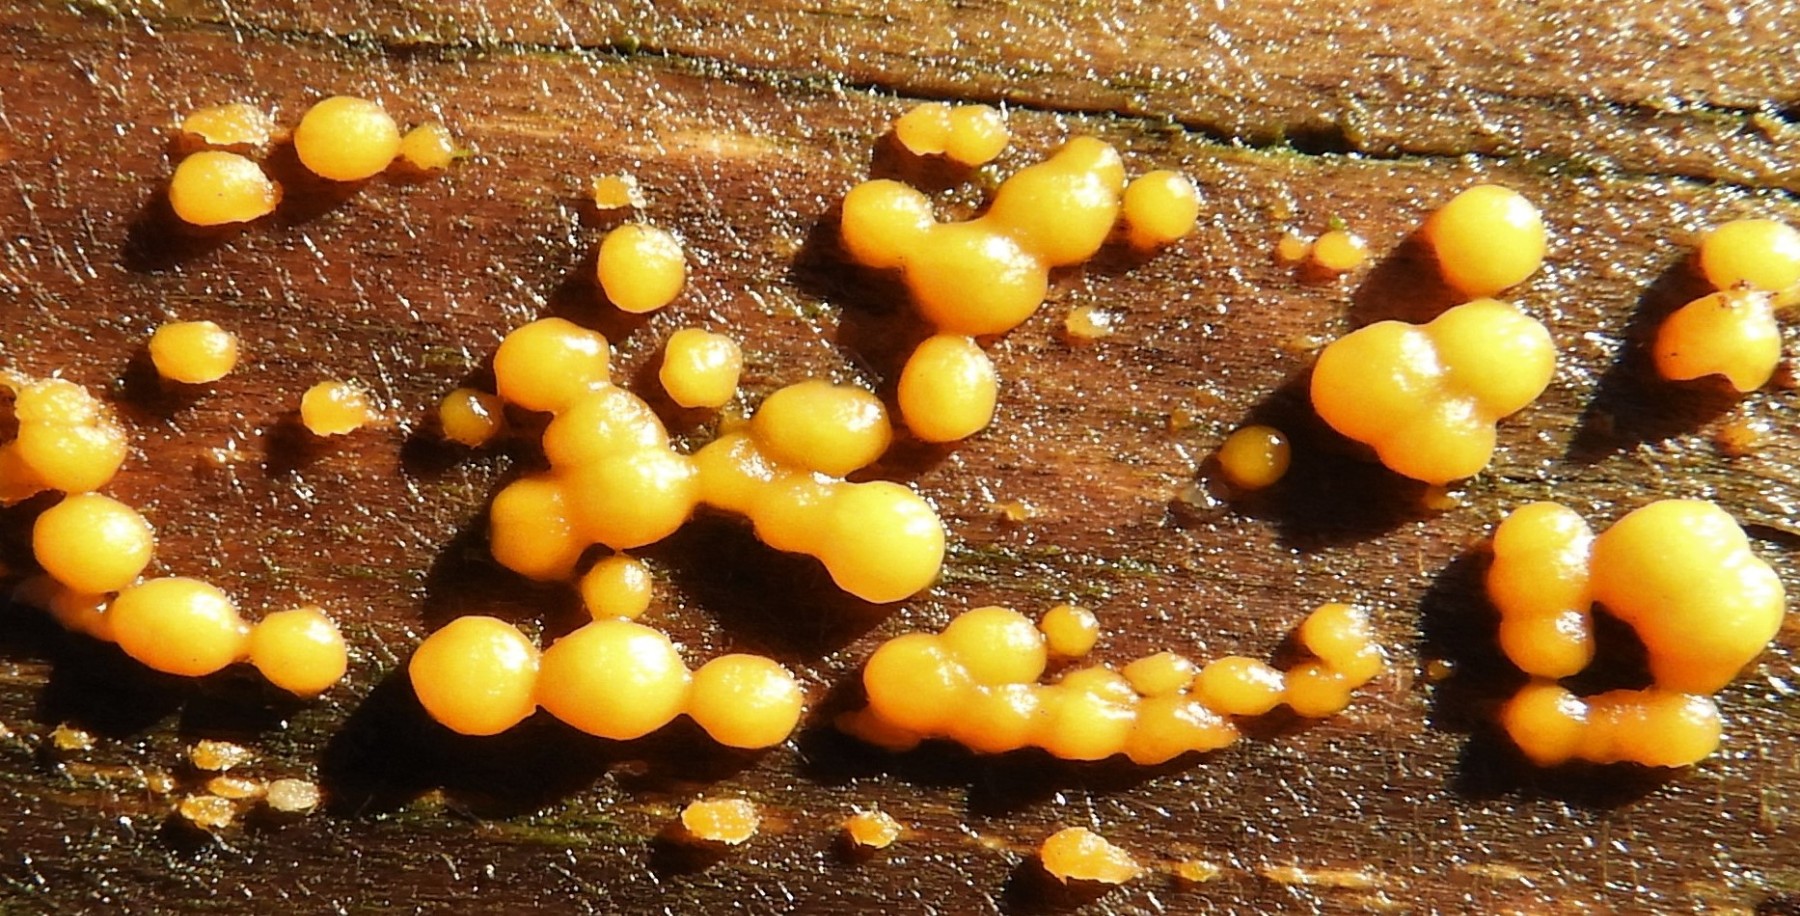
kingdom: Fungi
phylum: Basidiomycota
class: Dacrymycetes
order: Dacrymycetales
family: Dacrymycetaceae
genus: Dacrymyces
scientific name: Dacrymyces stillatus
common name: almindelig tåresvamp
